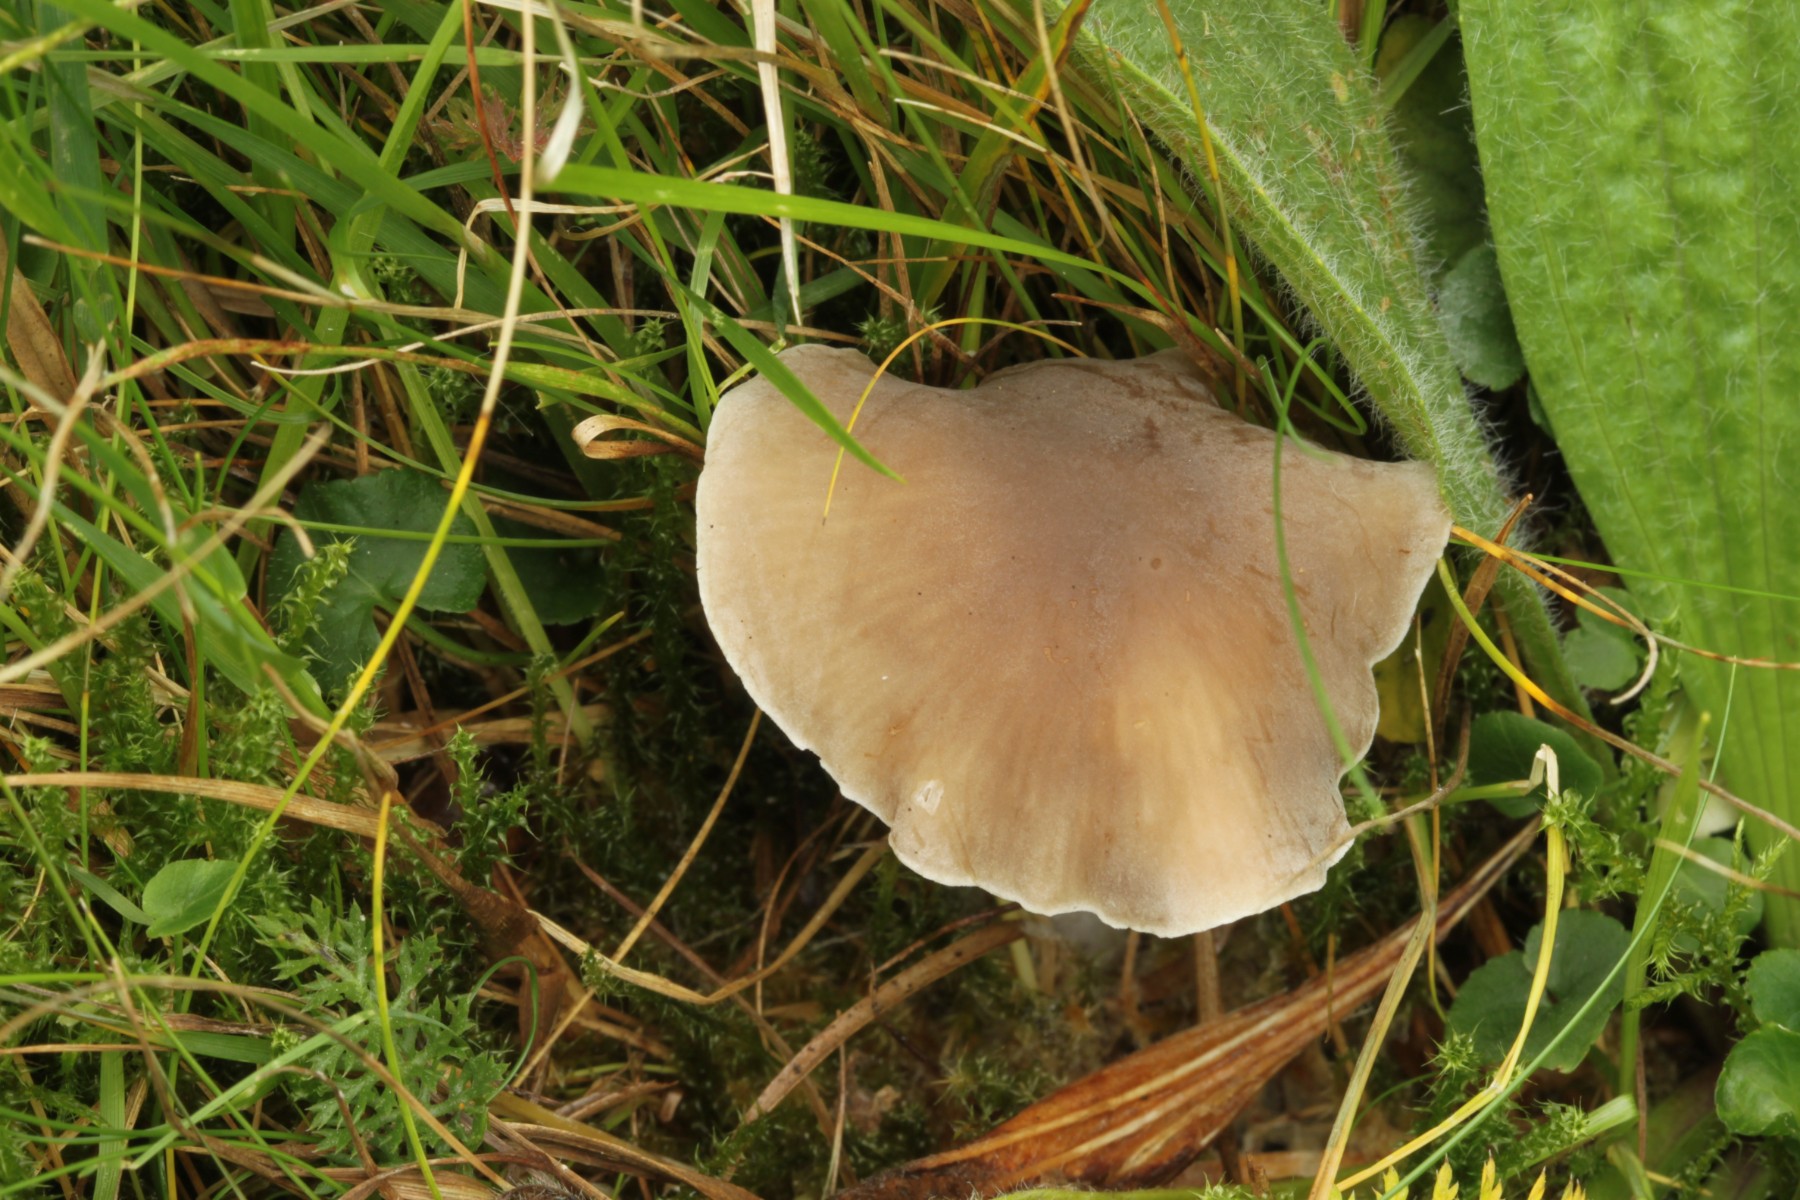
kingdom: Fungi
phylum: Basidiomycota
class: Agaricomycetes
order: Agaricales
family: Tricholomataceae
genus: Dermoloma
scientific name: Dermoloma cuneifolium
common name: eng-nonnehat
